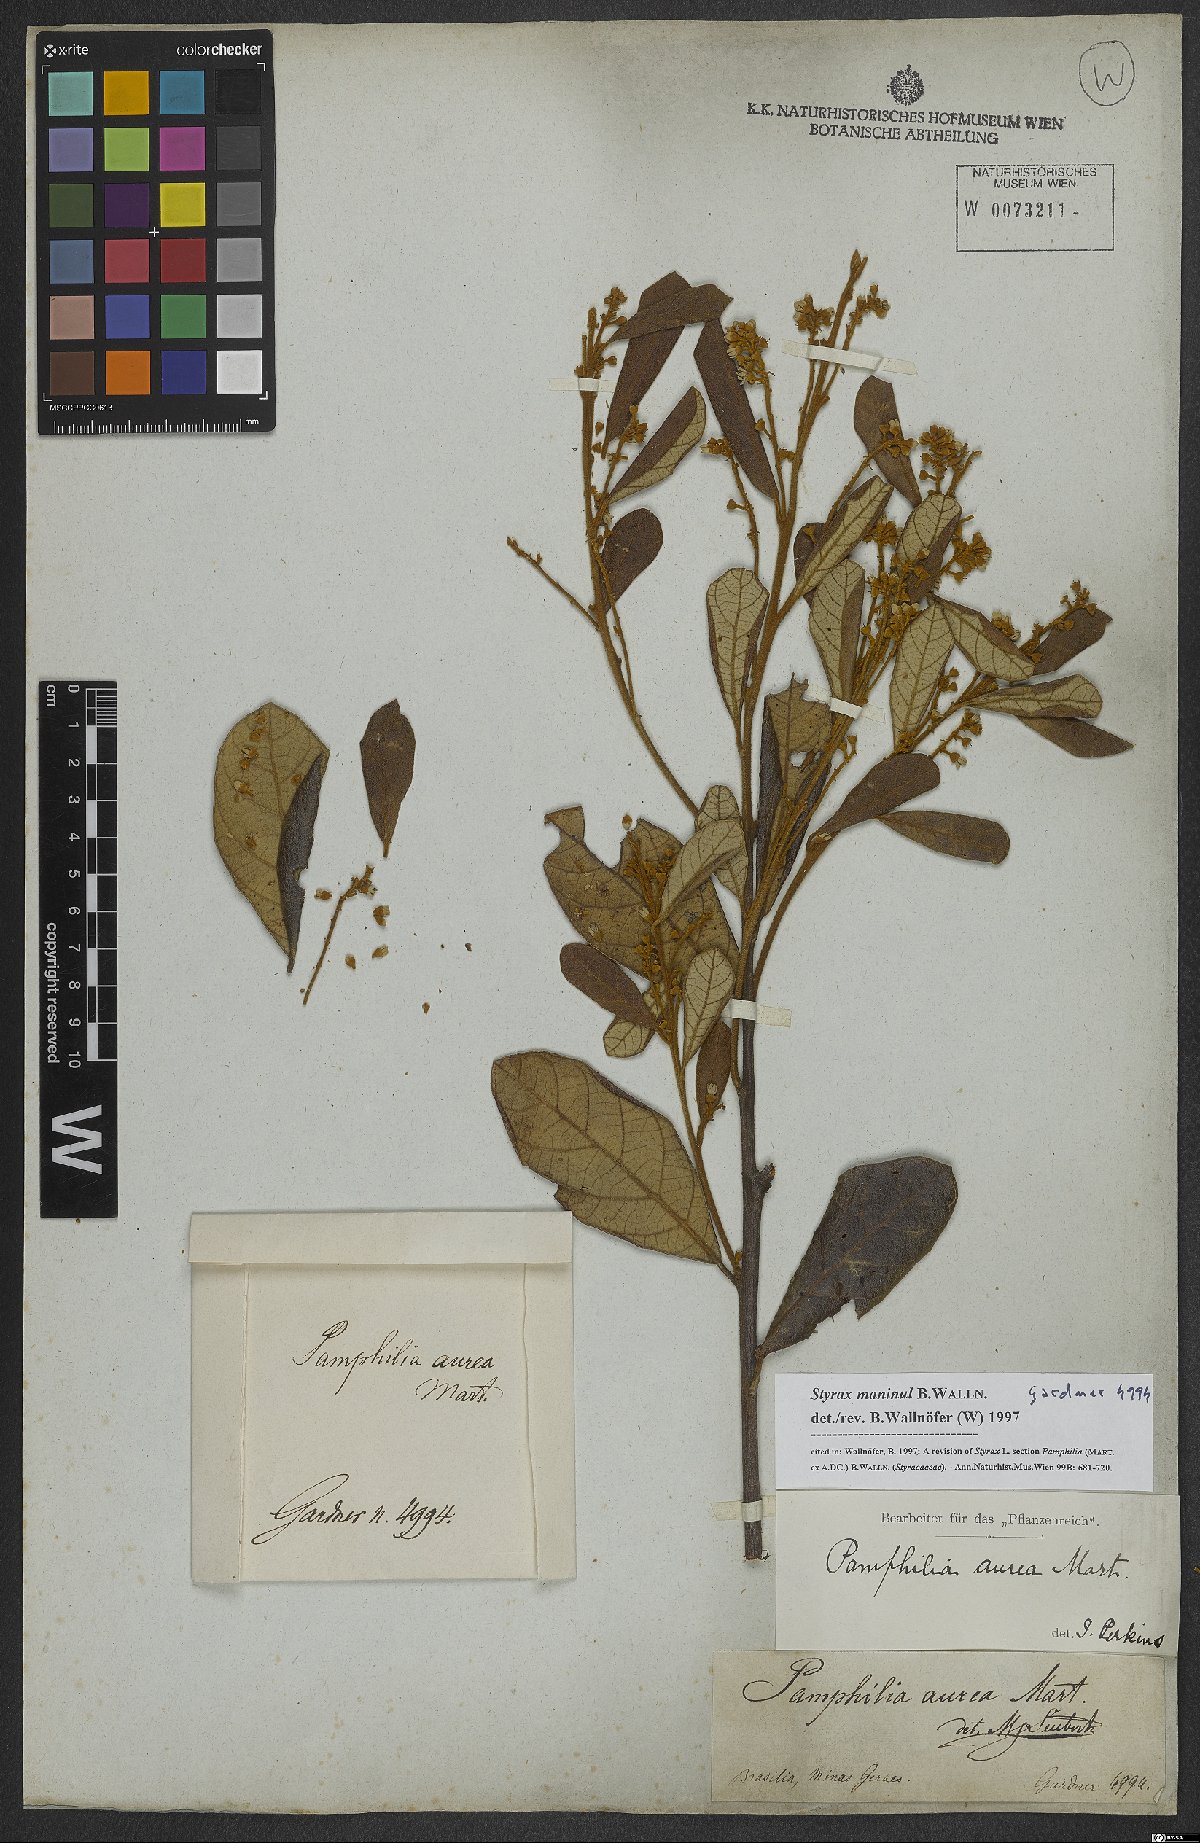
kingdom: Plantae
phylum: Tracheophyta
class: Magnoliopsida
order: Ericales
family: Styracaceae
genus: Styrax
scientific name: Styrax maninul
